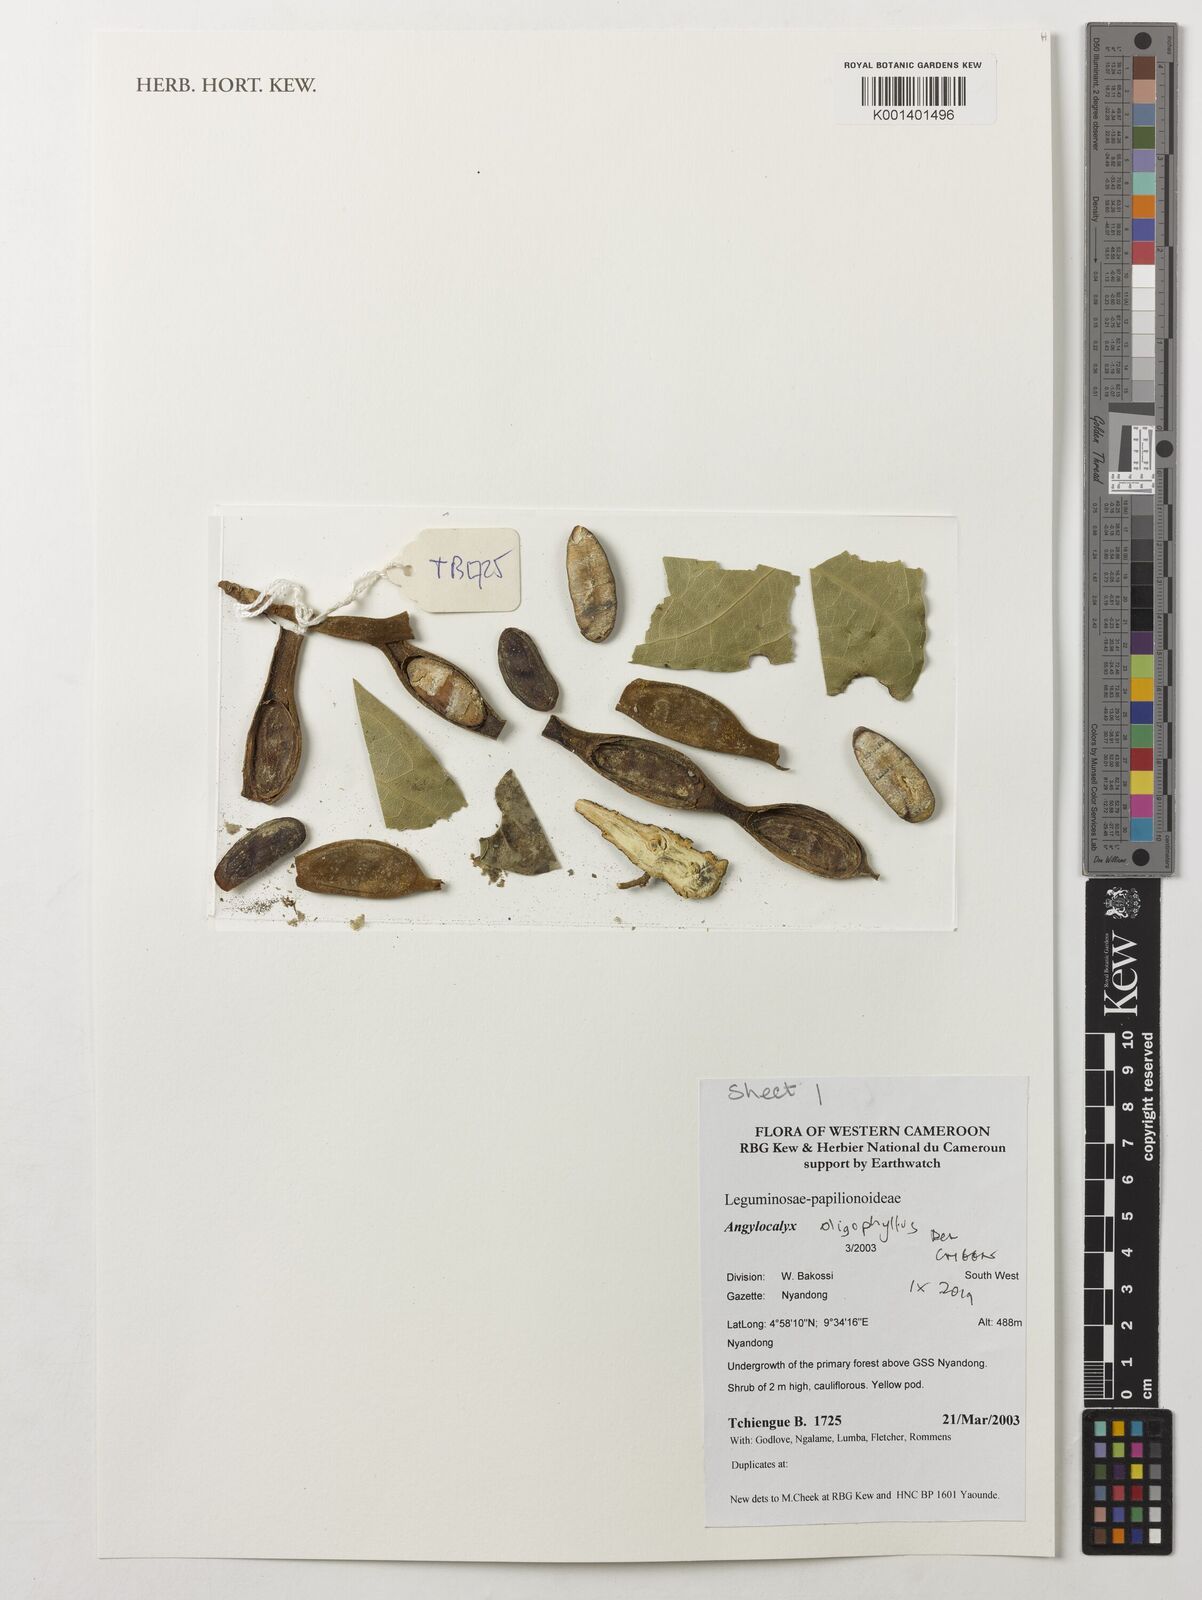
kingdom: Plantae
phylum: Tracheophyta
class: Magnoliopsida
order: Fabales
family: Fabaceae
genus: Angylocalyx
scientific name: Angylocalyx oligophyllus
